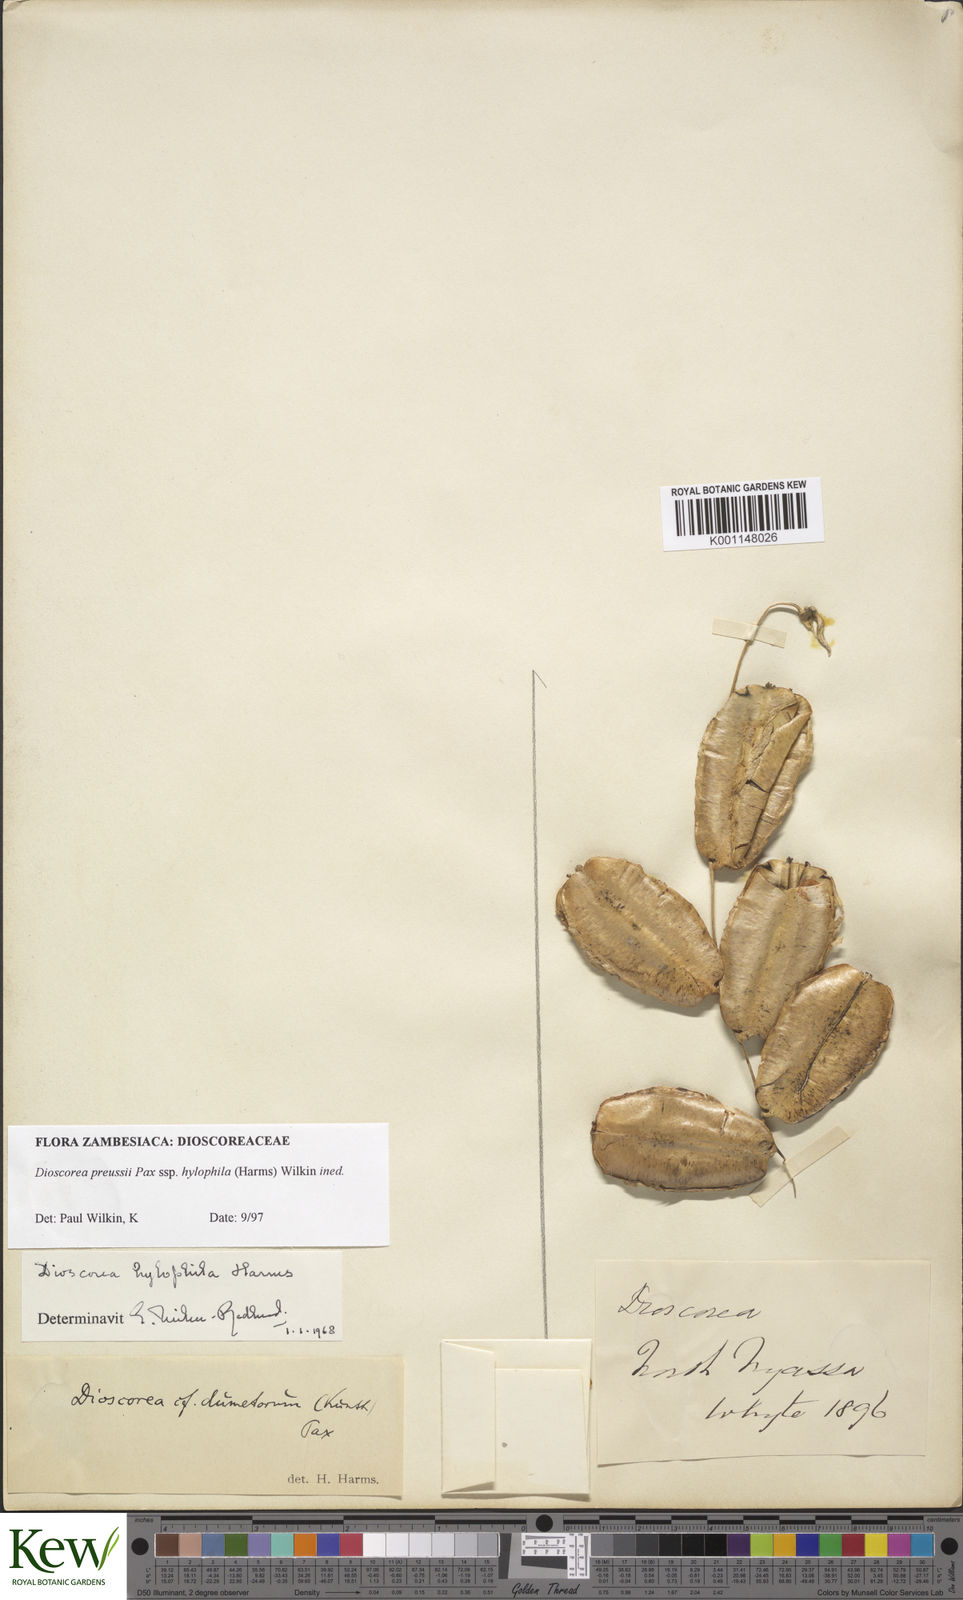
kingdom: Plantae
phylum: Tracheophyta
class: Liliopsida
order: Dioscoreales
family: Dioscoreaceae
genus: Dioscorea
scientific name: Dioscorea preussii
